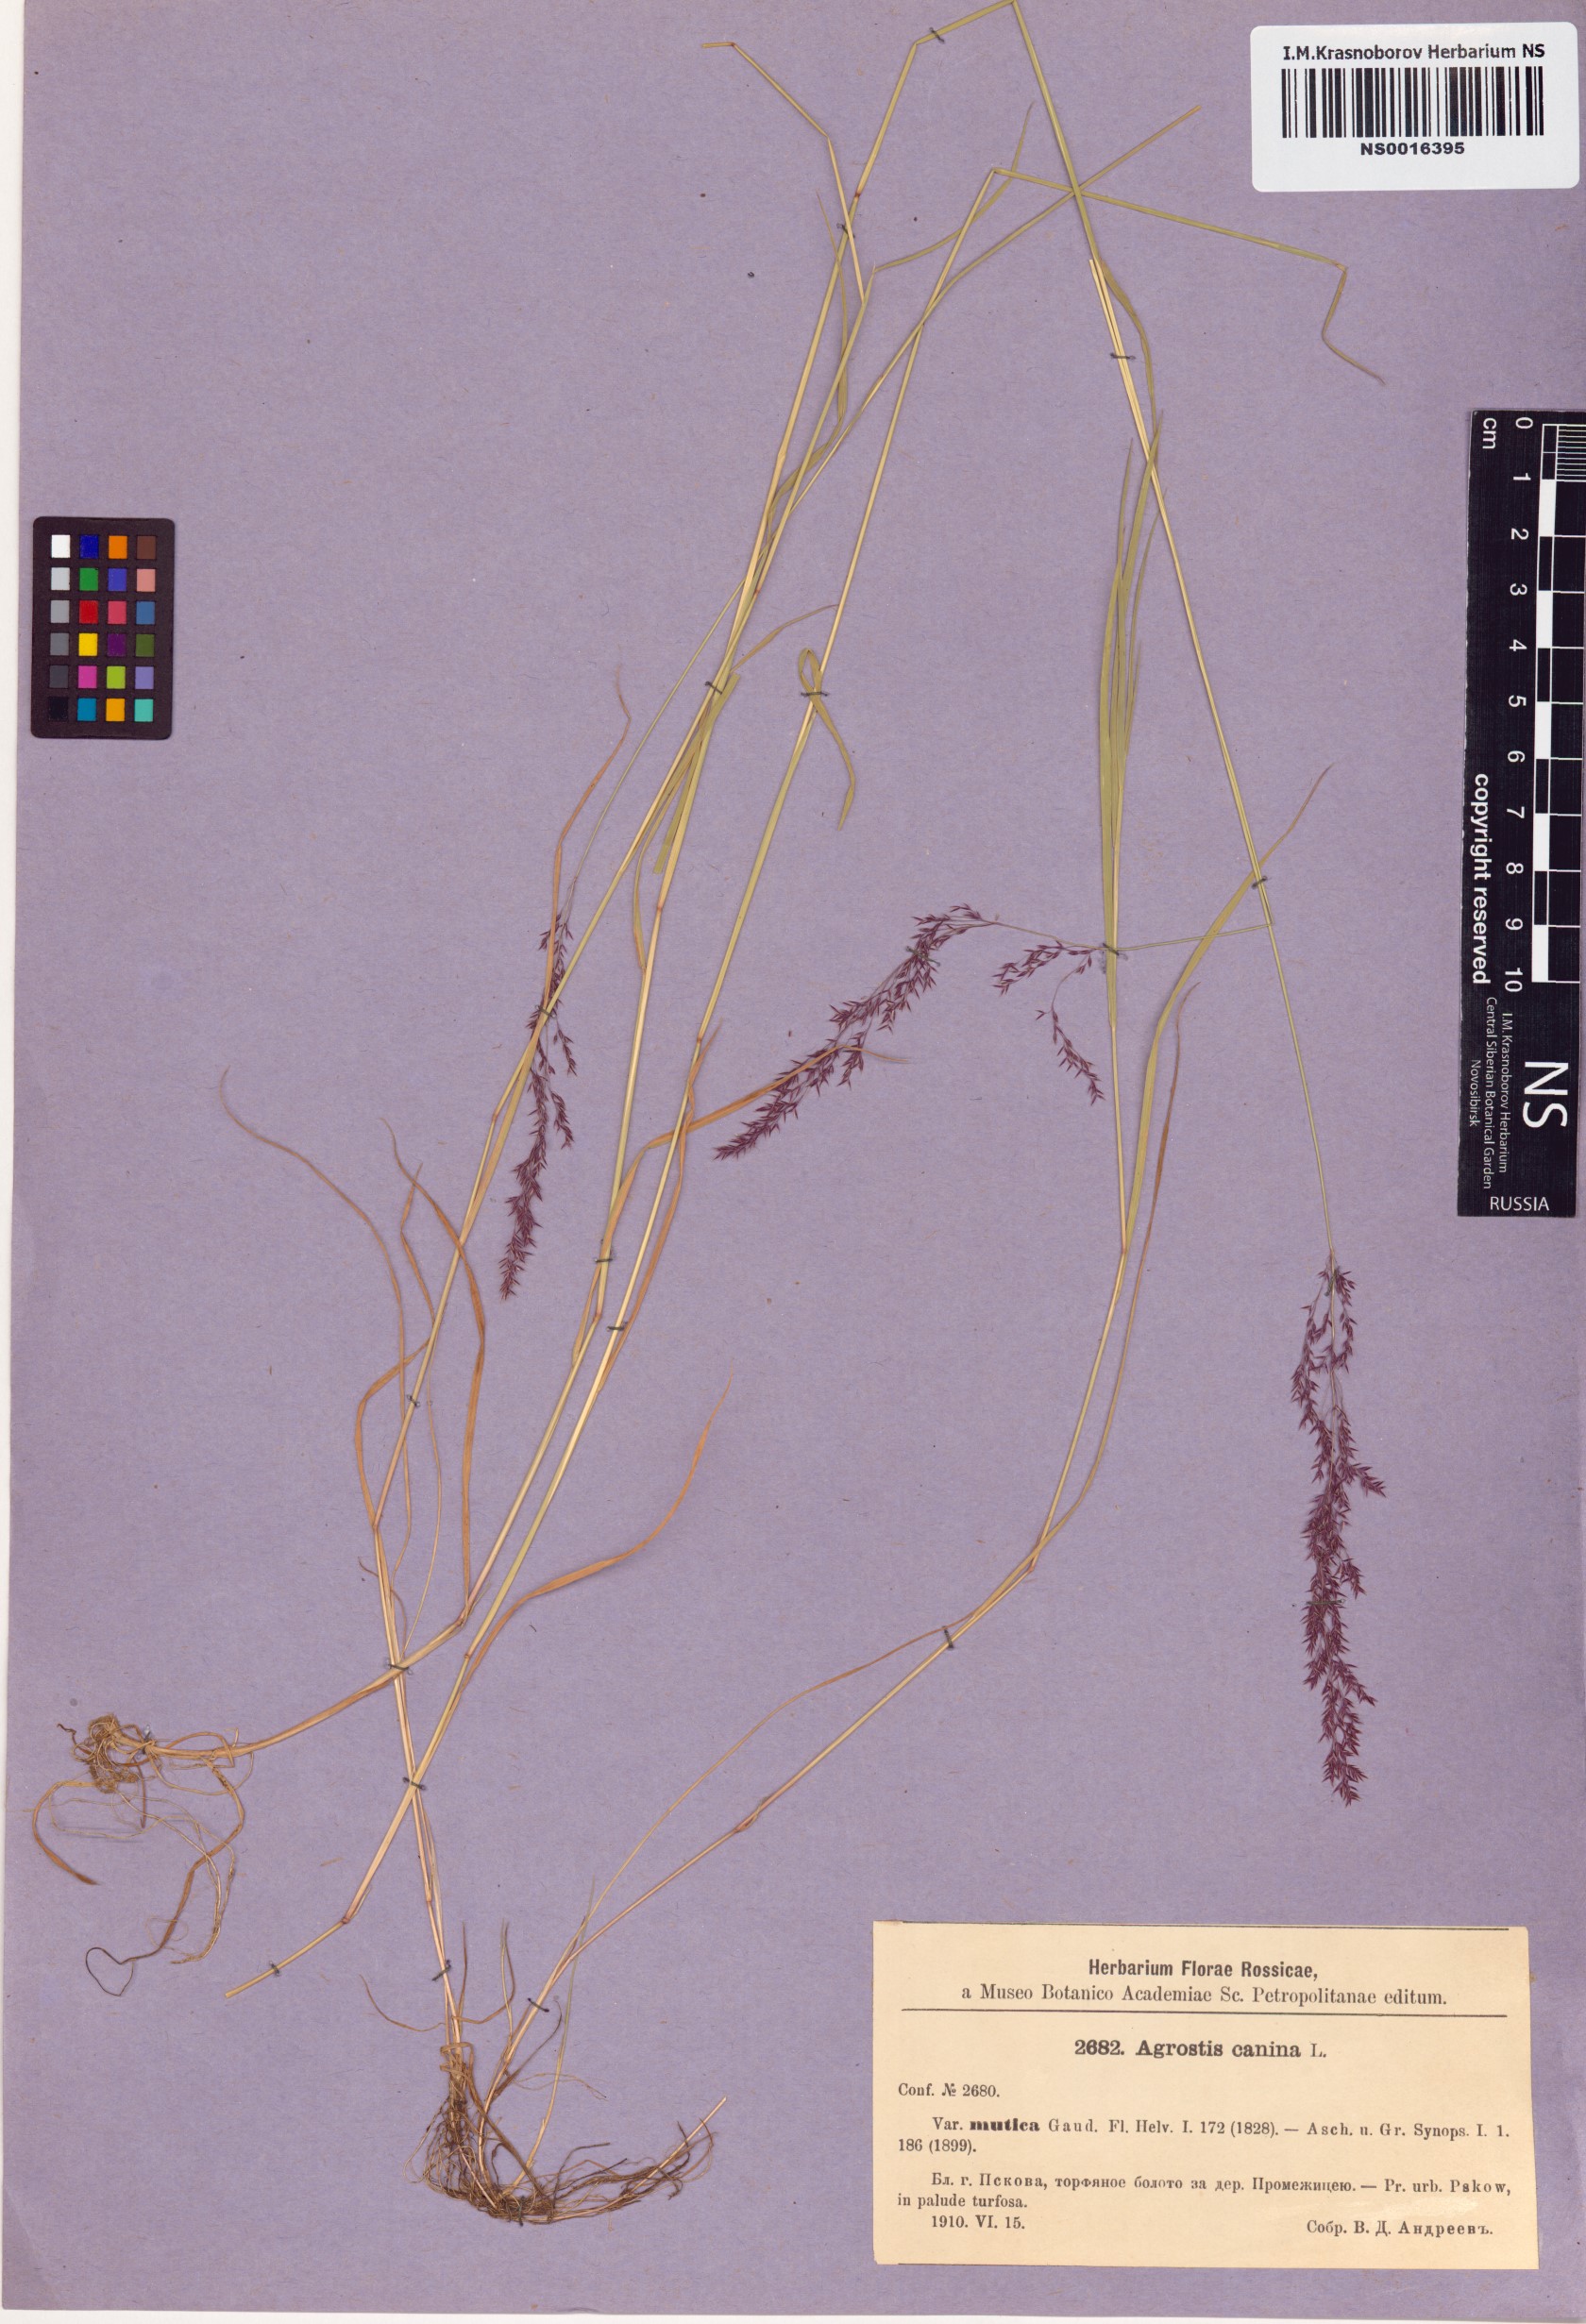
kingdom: Plantae
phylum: Tracheophyta
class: Liliopsida
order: Poales
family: Poaceae
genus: Agrostis
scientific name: Agrostis canina
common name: Velvet bent
